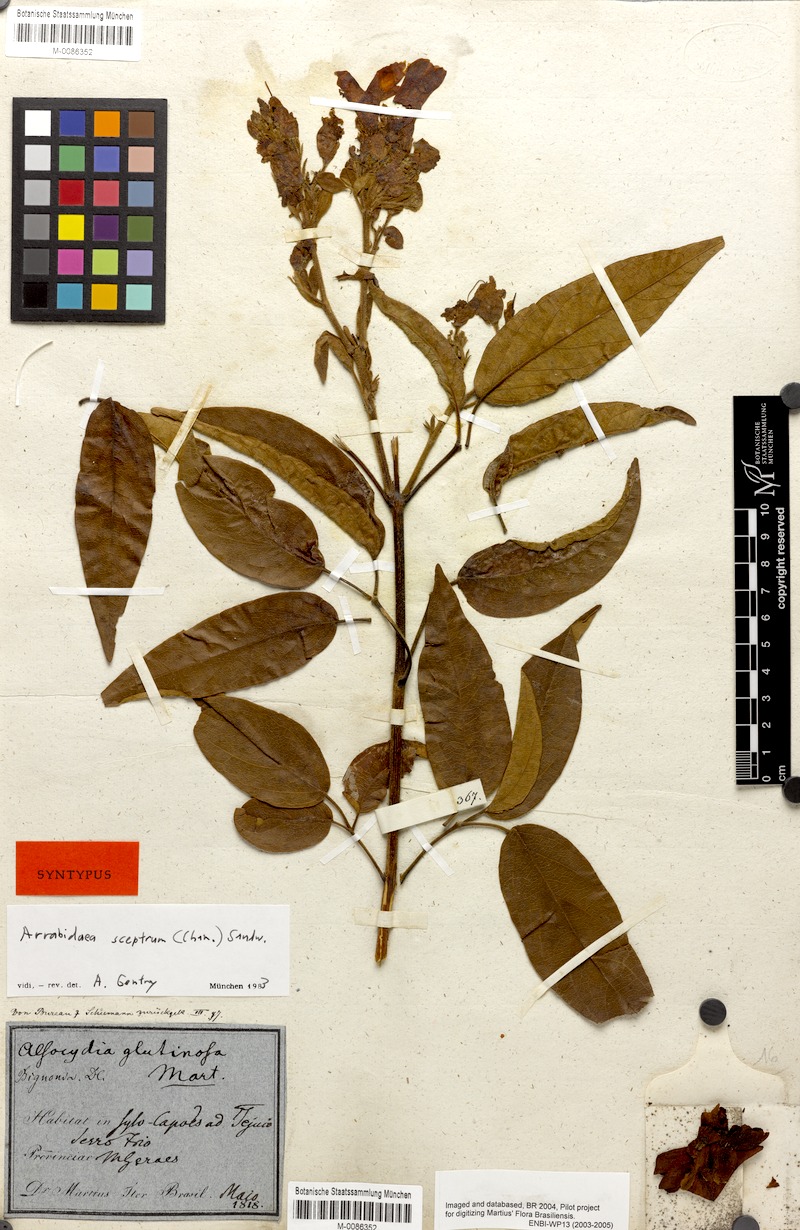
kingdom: Plantae
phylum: Tracheophyta
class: Magnoliopsida
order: Lamiales
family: Bignoniaceae
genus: Cuspidaria
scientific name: Cuspidaria sceptrum
